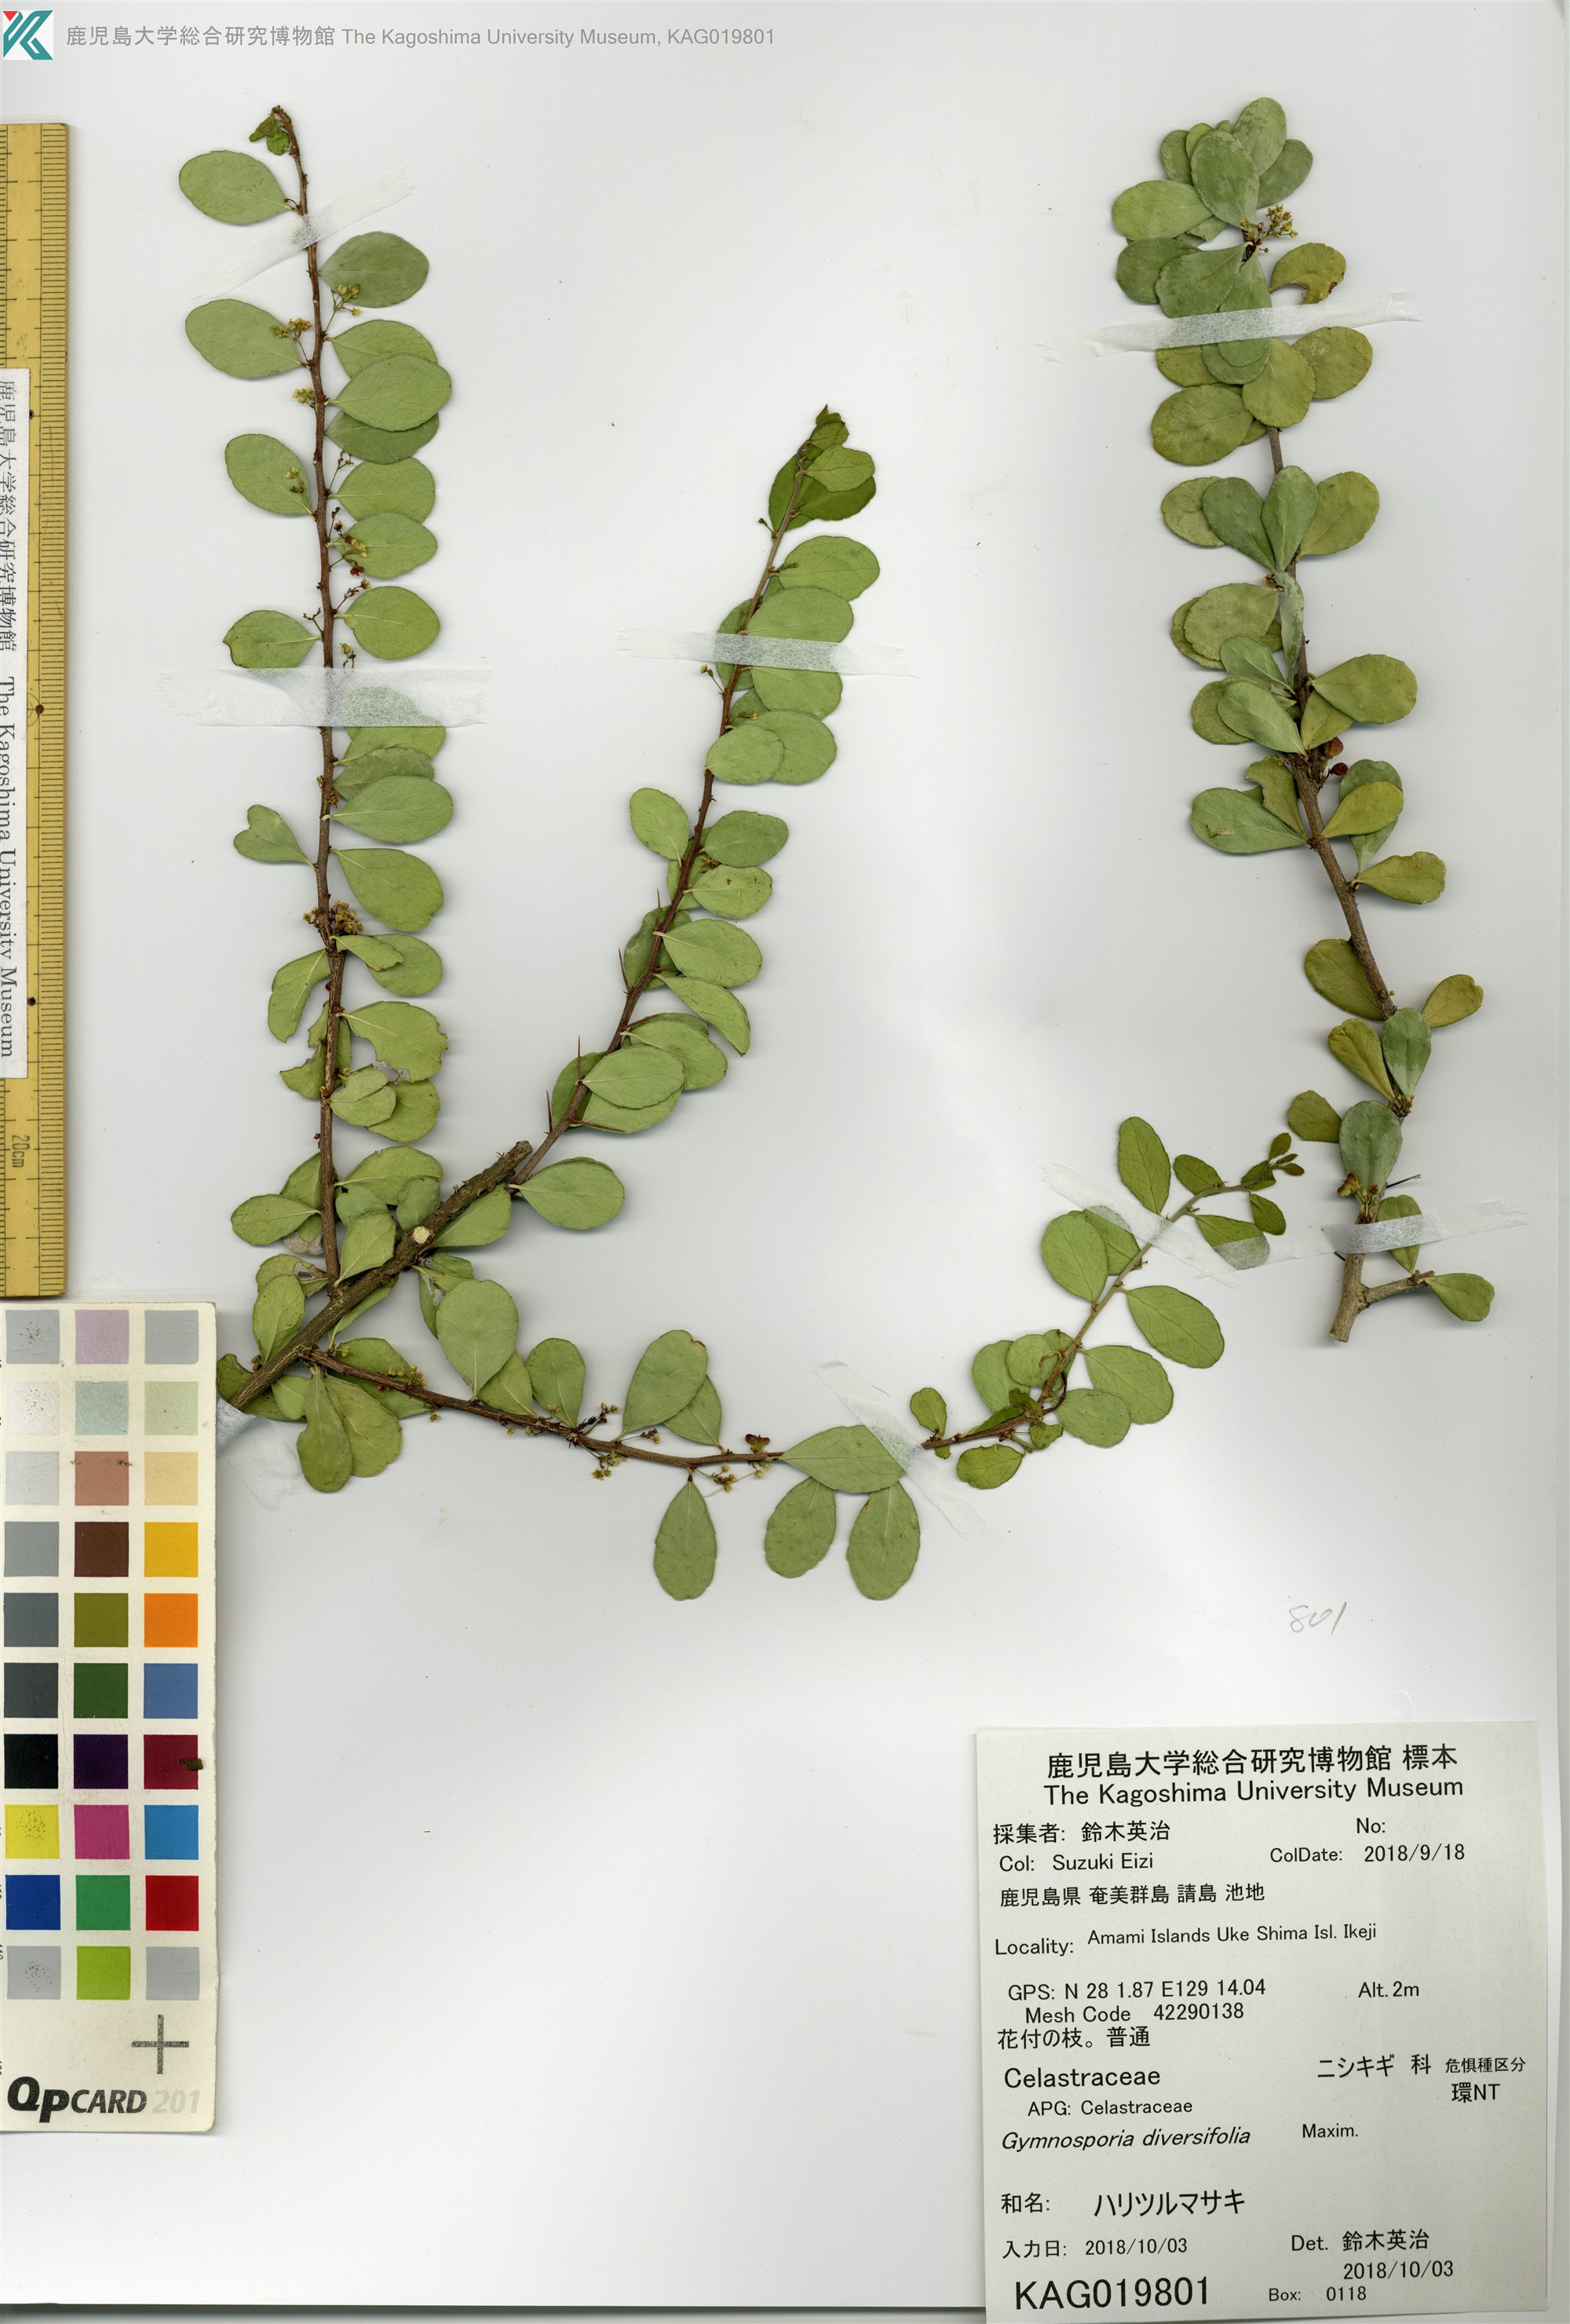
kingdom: Plantae
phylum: Tracheophyta
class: Magnoliopsida
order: Celastrales
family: Celastraceae
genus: Gymnosporia
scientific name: Gymnosporia diversifolia
